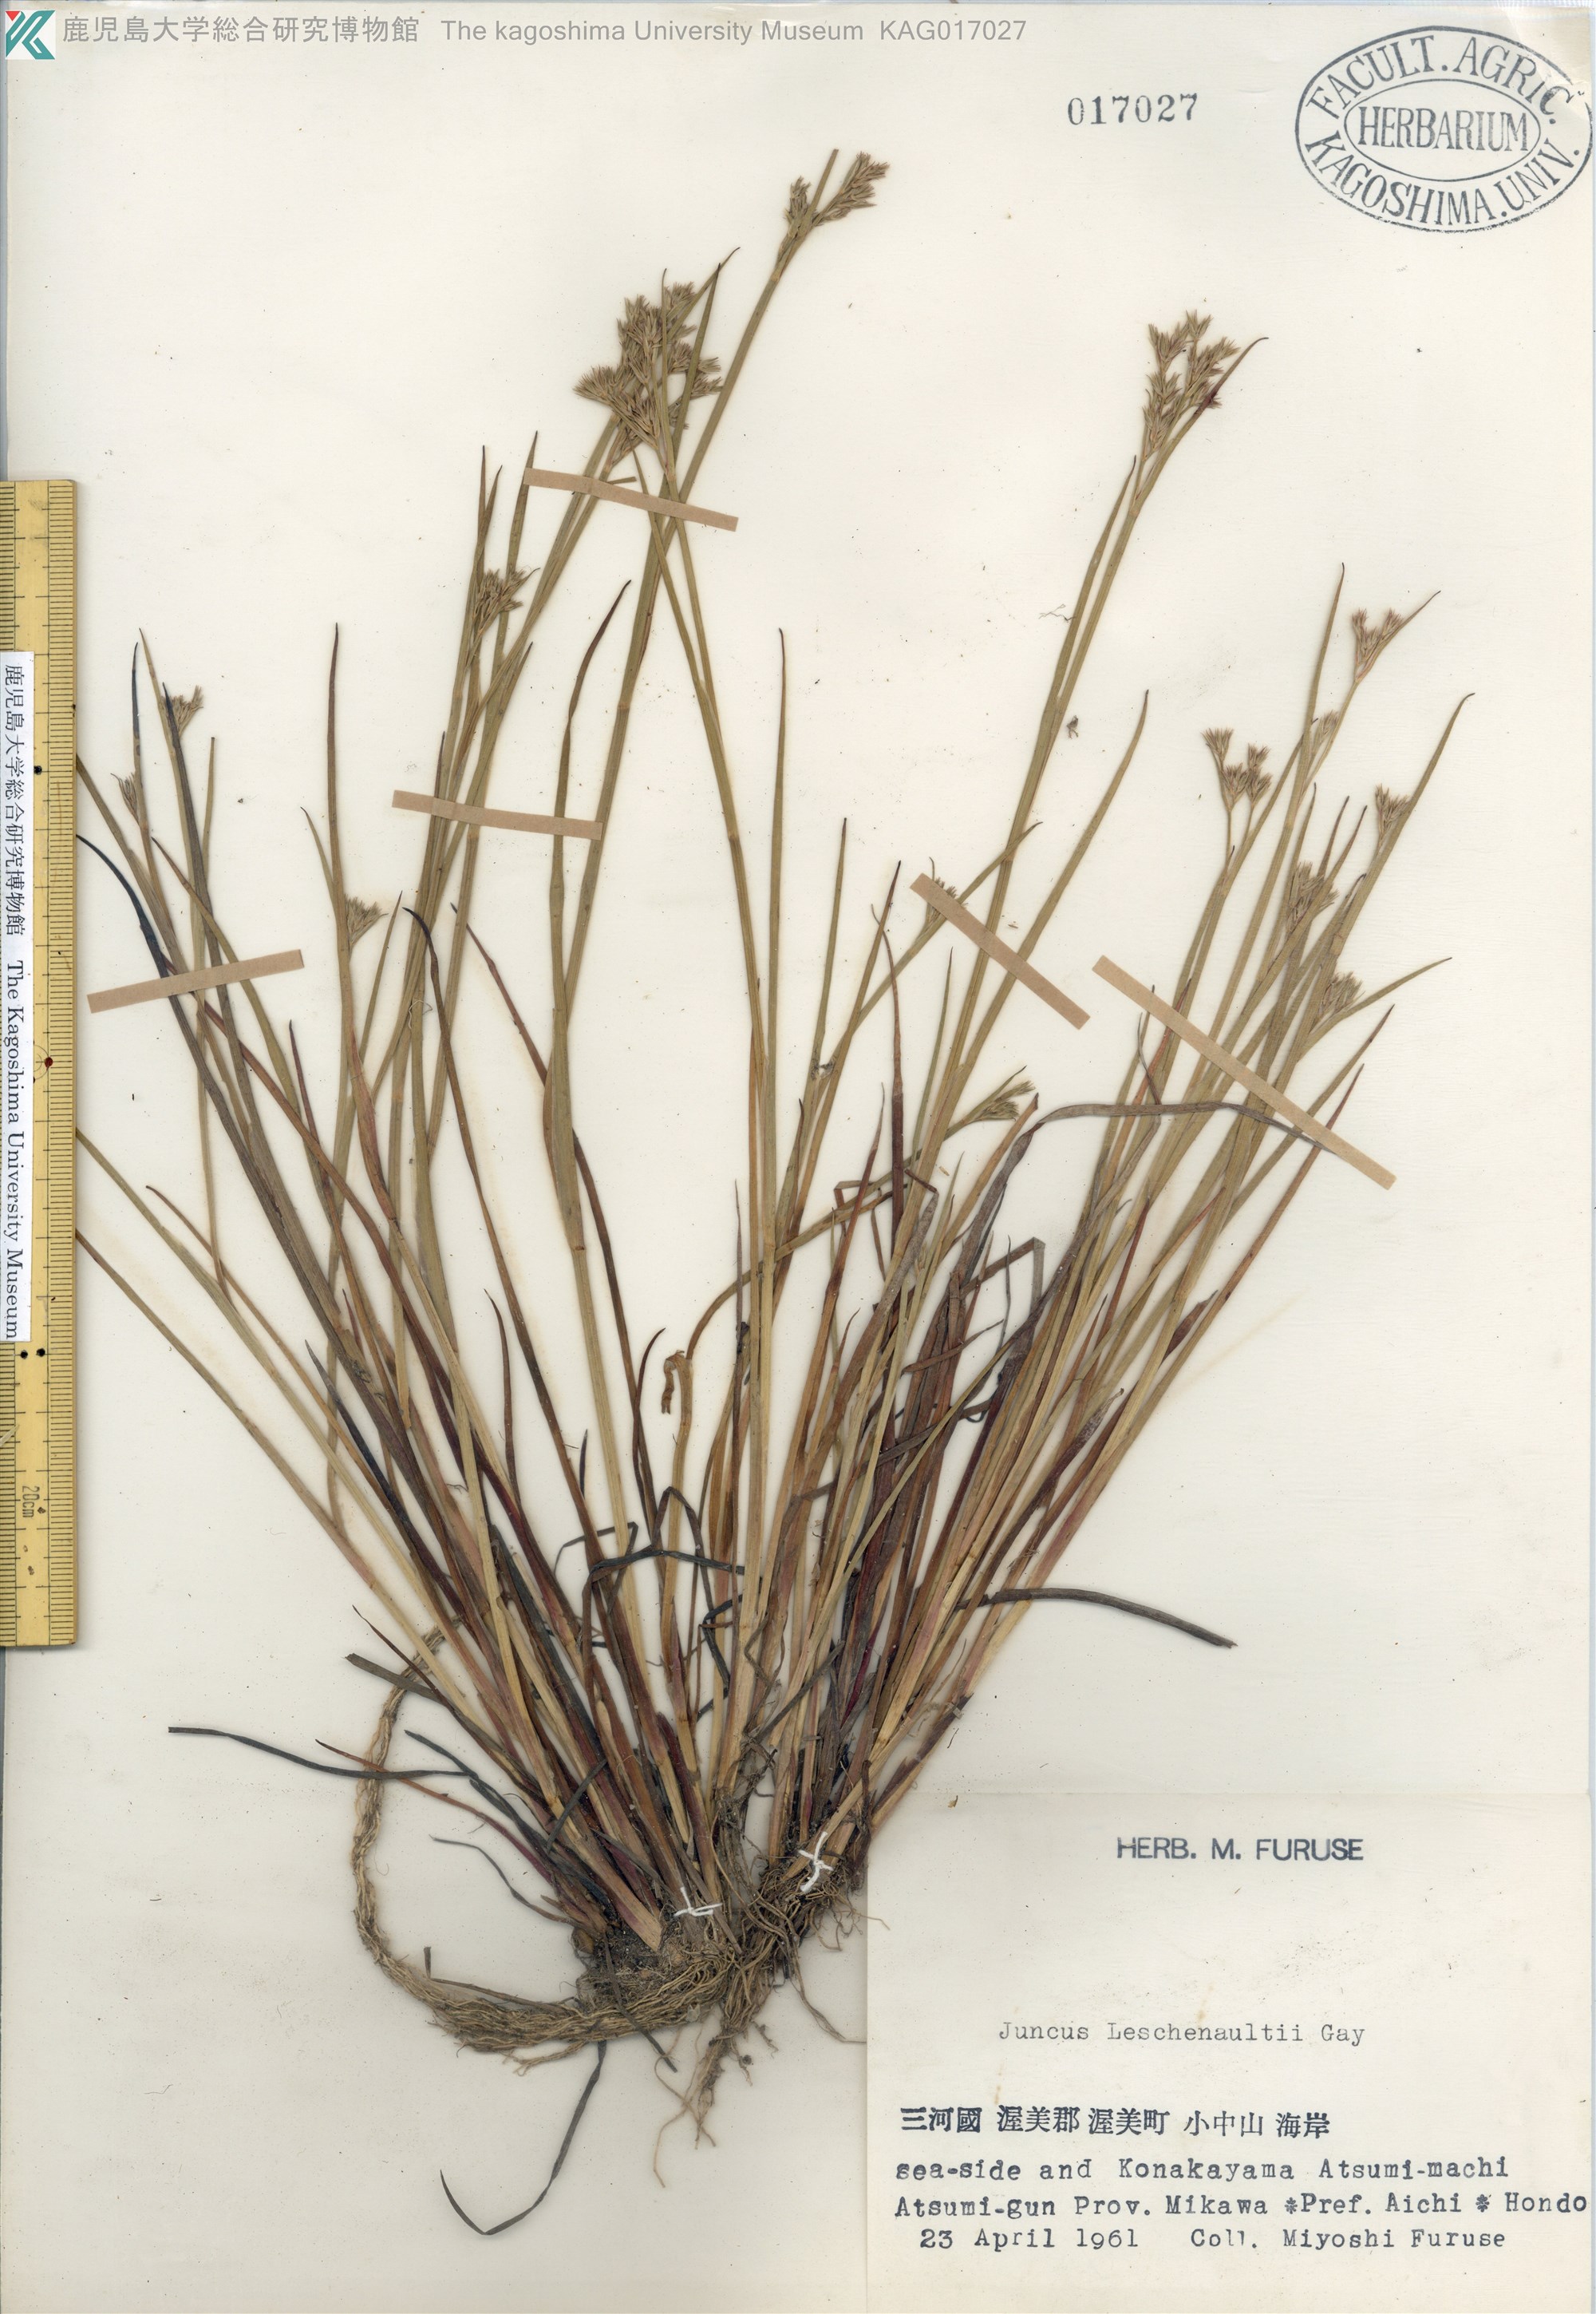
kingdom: Plantae
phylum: Tracheophyta
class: Liliopsida
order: Poales
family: Juncaceae
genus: Juncus
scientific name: Juncus prismatocarpus
